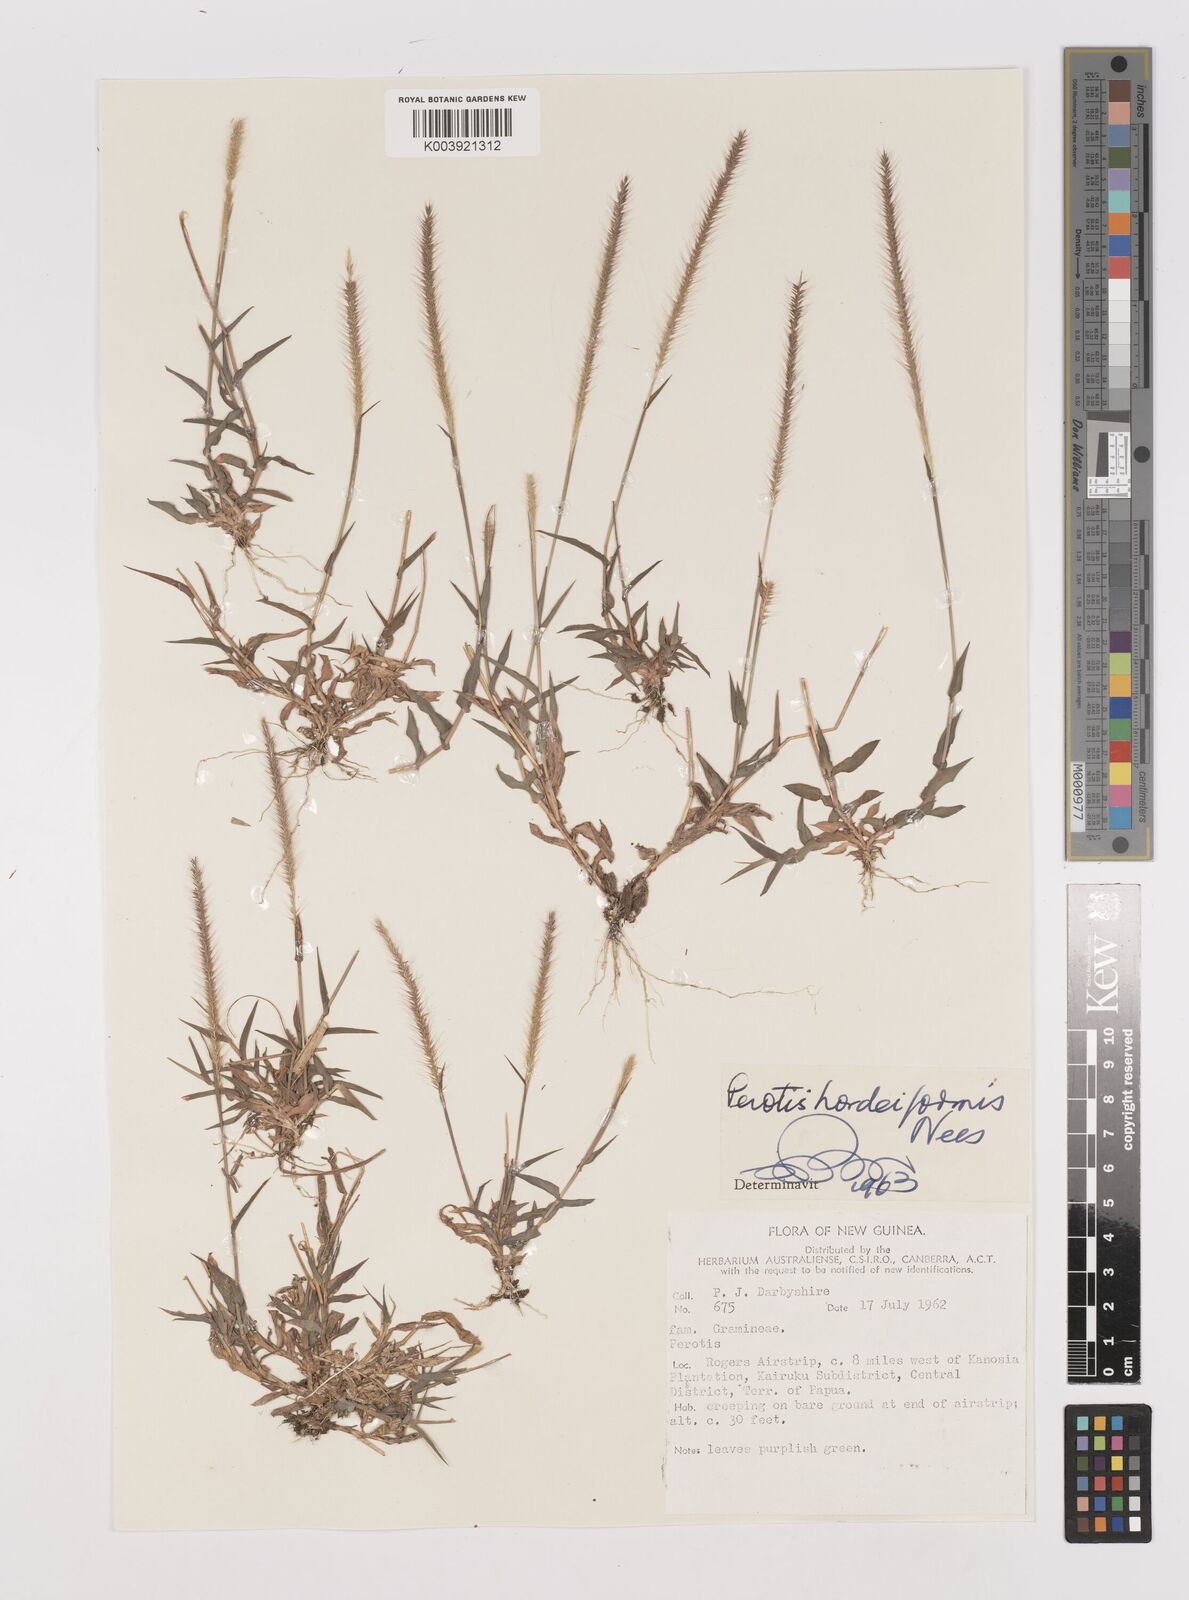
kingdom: Plantae
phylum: Tracheophyta
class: Liliopsida
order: Poales
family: Poaceae
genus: Perotis
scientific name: Perotis indica
